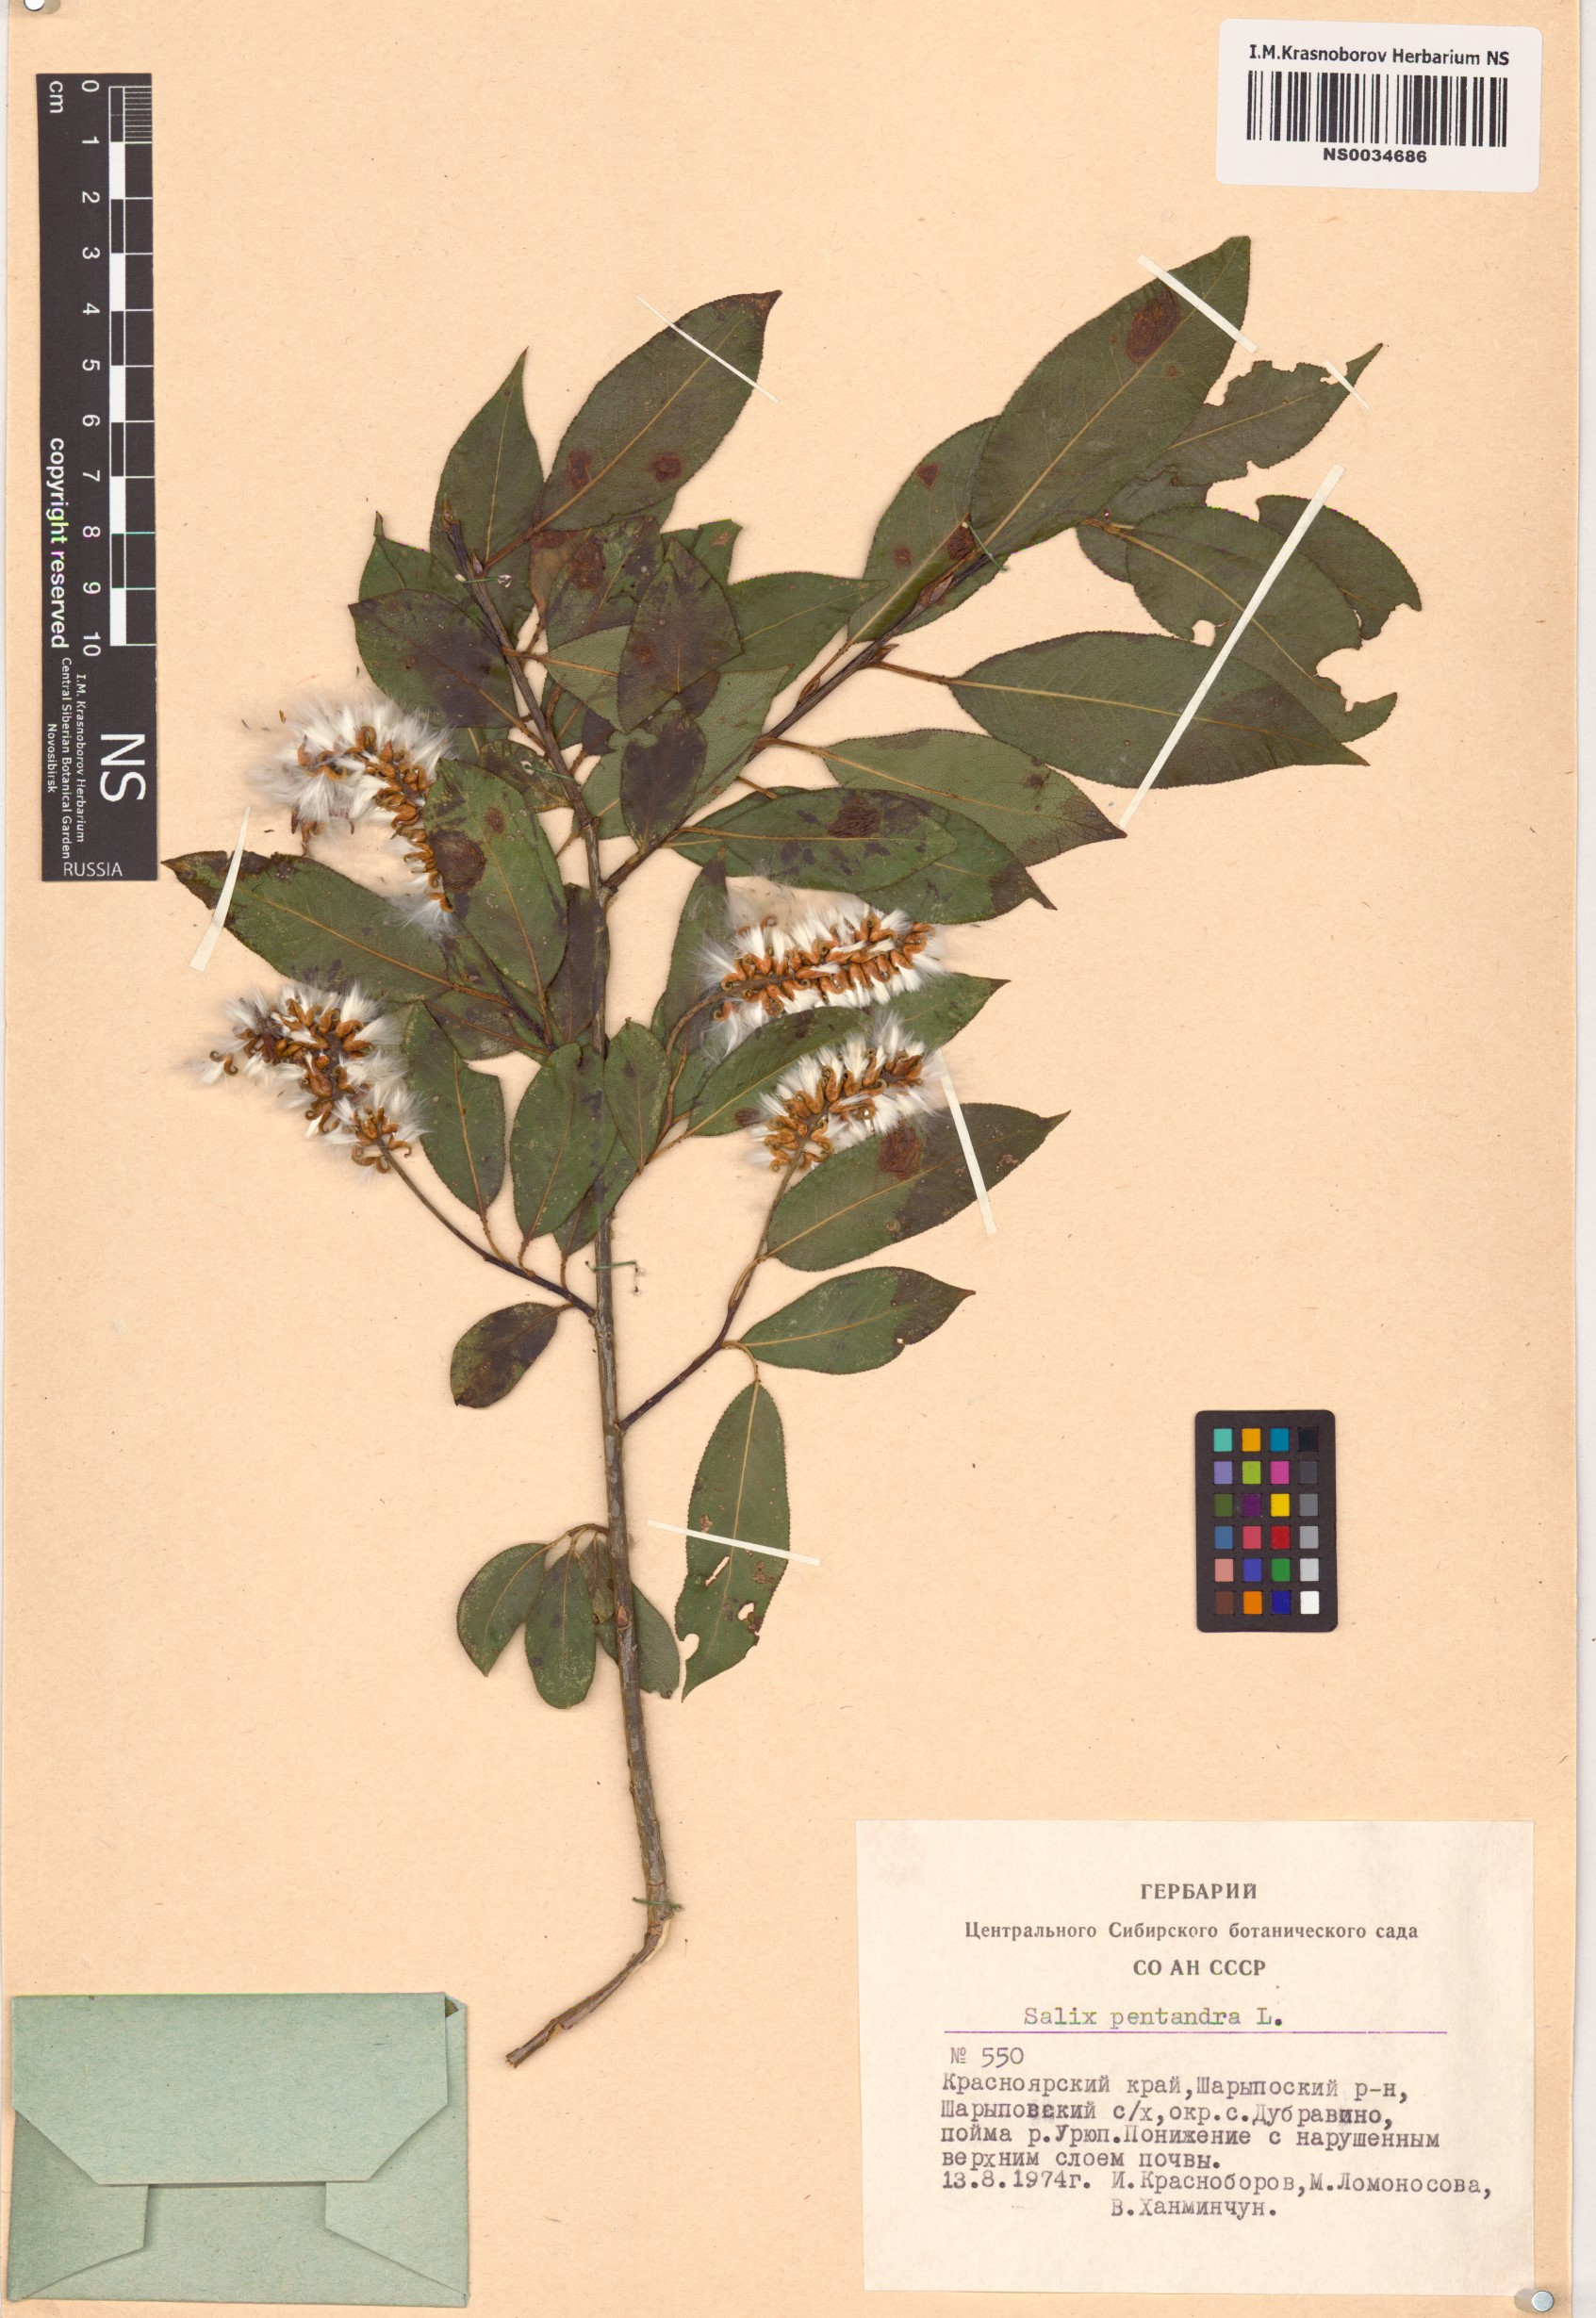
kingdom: Plantae
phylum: Tracheophyta
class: Magnoliopsida
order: Malpighiales
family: Salicaceae
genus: Salix
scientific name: Salix pentandra
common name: Bay willow
